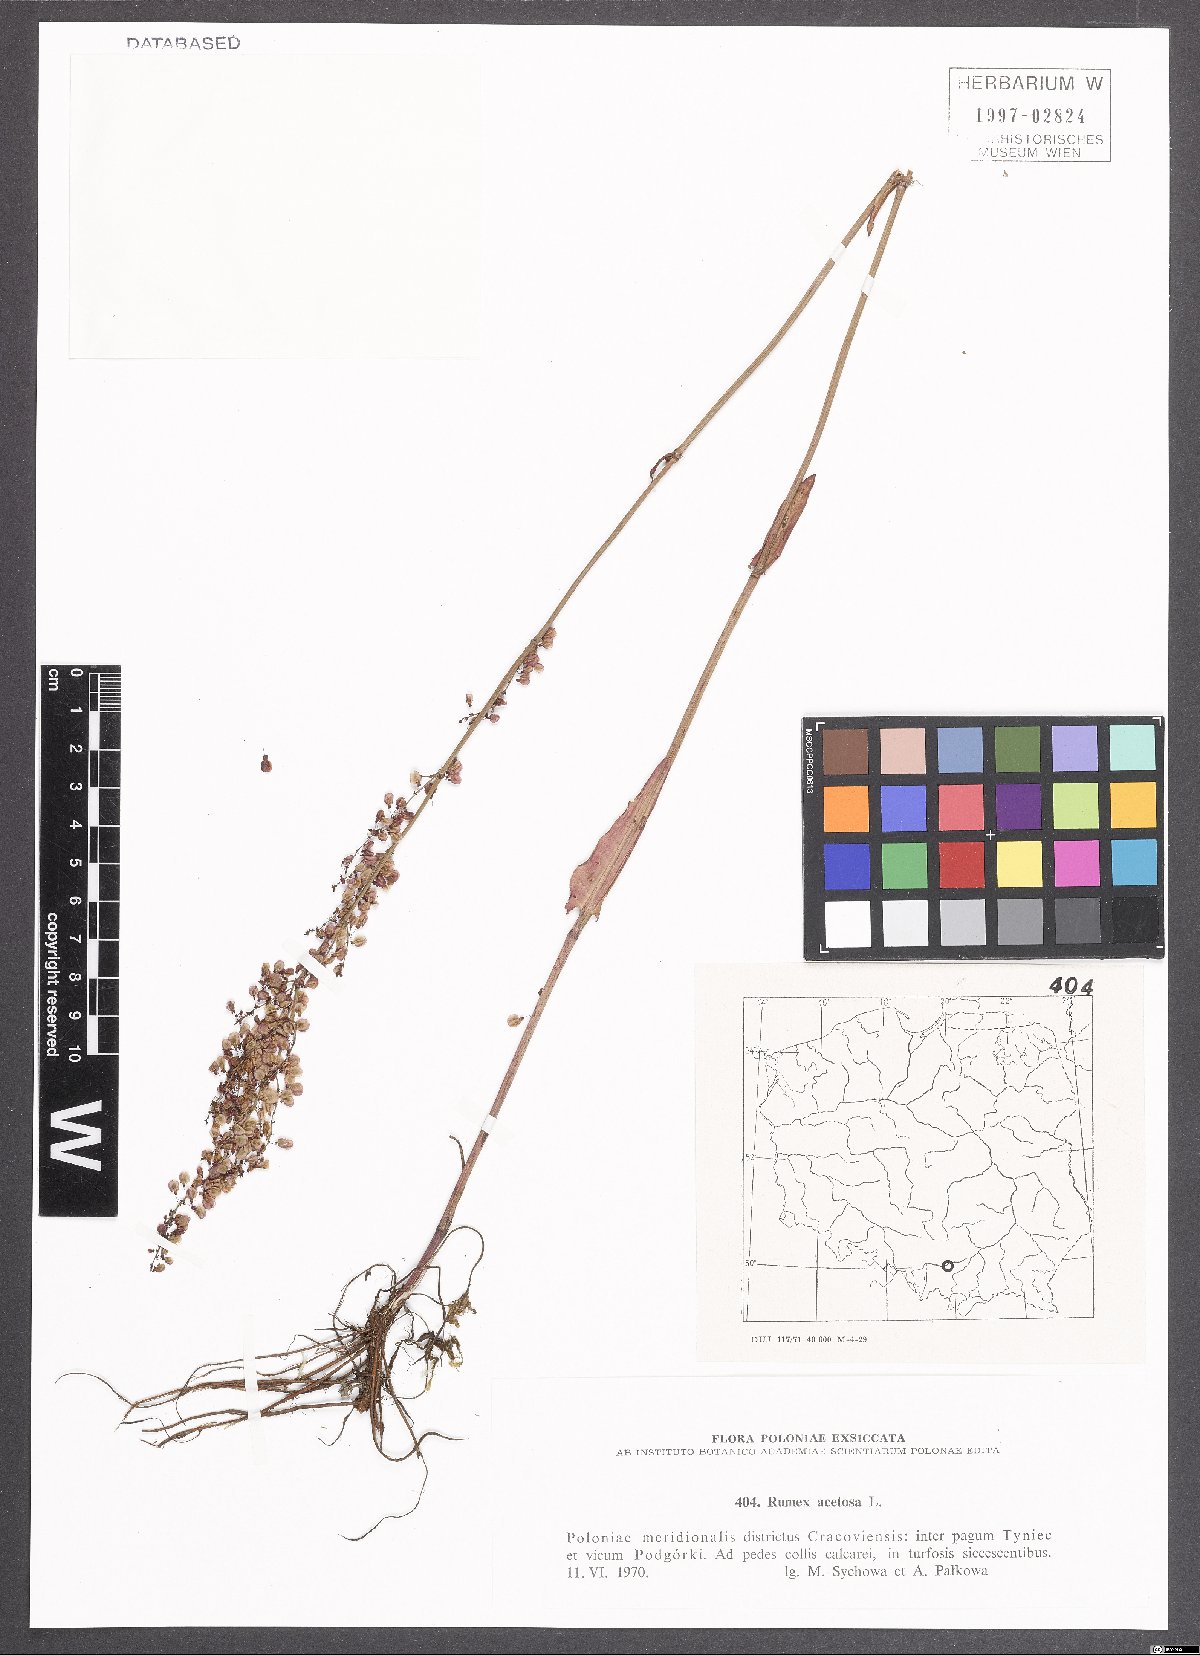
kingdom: Plantae
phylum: Tracheophyta
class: Magnoliopsida
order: Caryophyllales
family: Polygonaceae
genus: Rumex
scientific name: Rumex acetosa
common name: Garden sorrel
